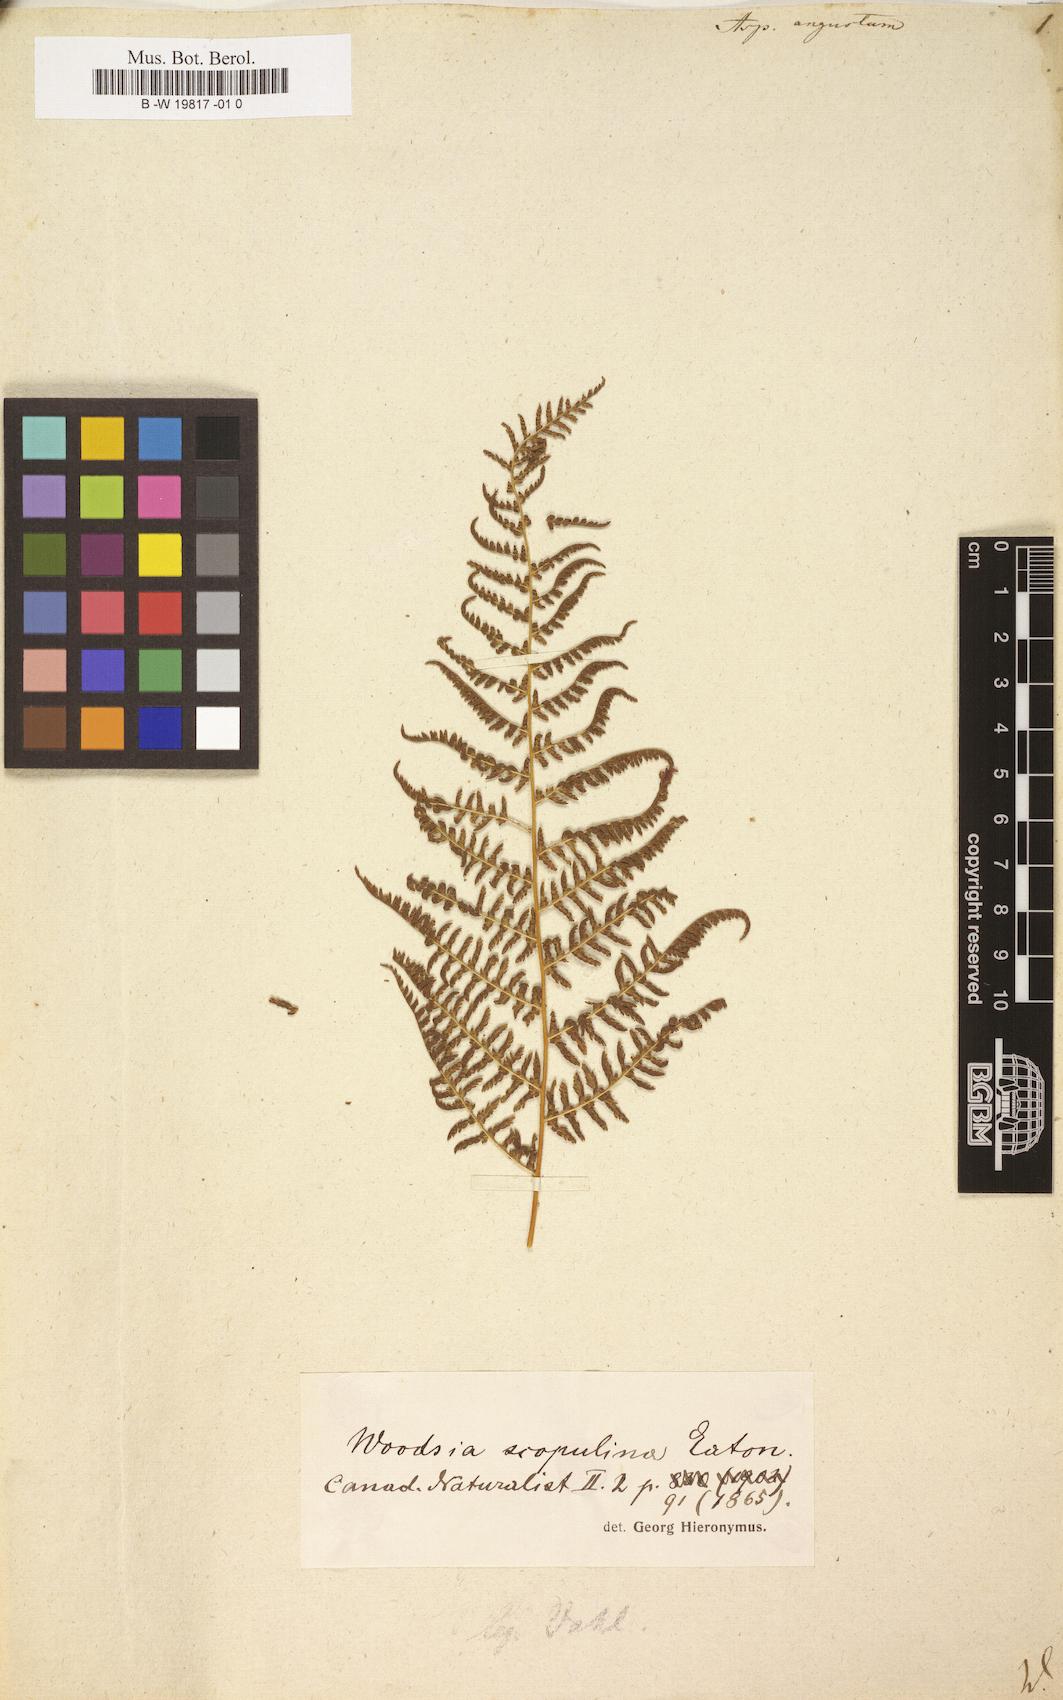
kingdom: Plantae
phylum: Tracheophyta
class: Polypodiopsida
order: Polypodiales
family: Athyriaceae
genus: Athyrium
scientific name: Athyrium angustum
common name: Northern lady fern
